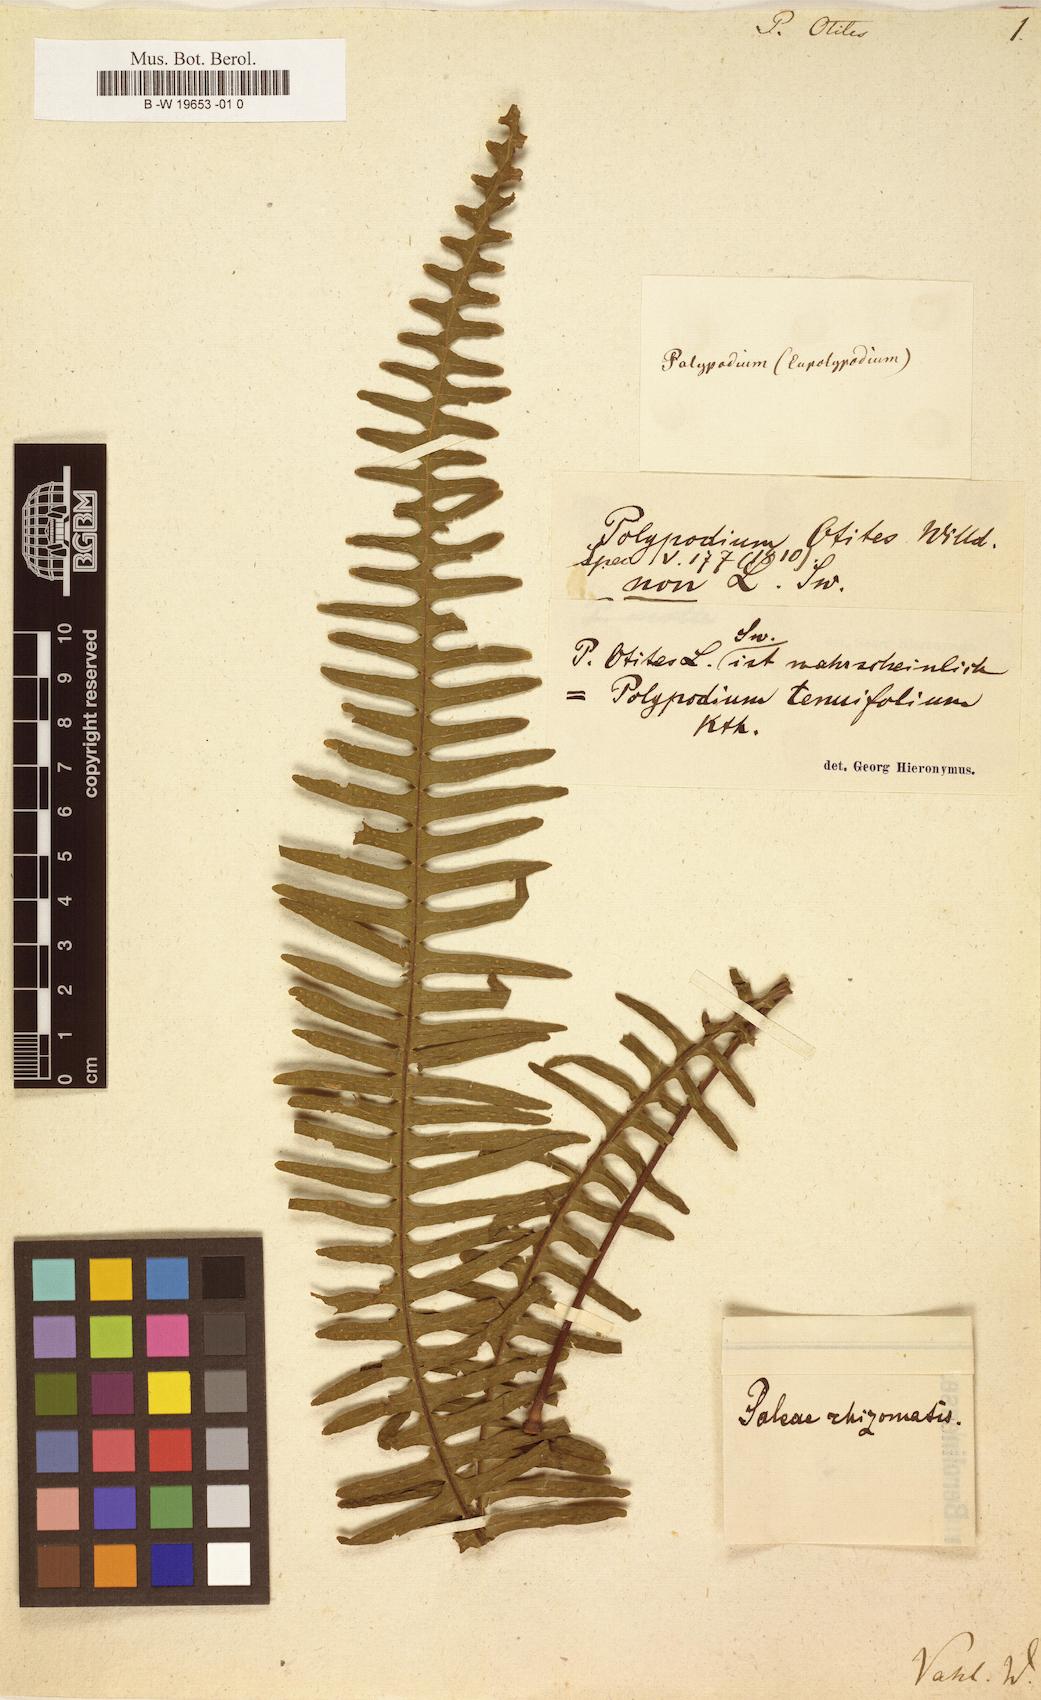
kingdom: Plantae
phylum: Tracheophyta
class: Polypodiopsida
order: Polypodiales
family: Polypodiaceae
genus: Pecluma
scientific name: Pecluma pectinata
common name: Msasa fern
